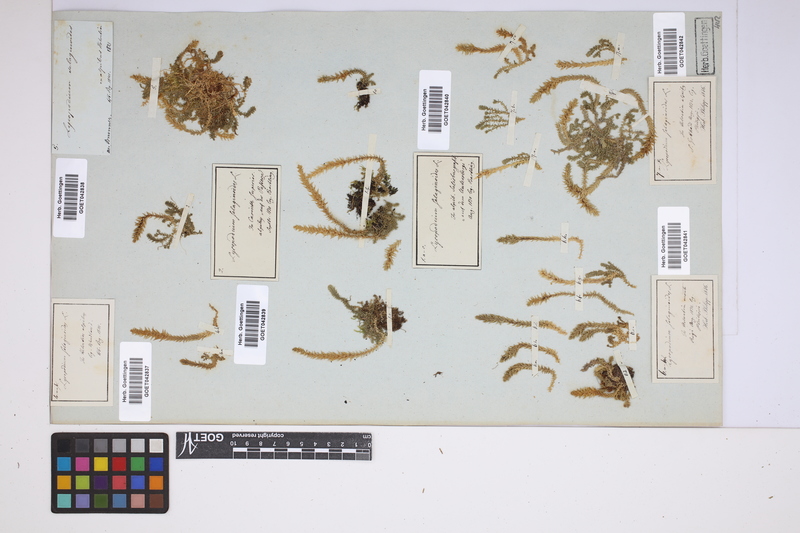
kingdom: Plantae
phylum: Tracheophyta
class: Lycopodiopsida
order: Selaginellales
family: Selaginellaceae
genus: Selaginella
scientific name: Selaginella selaginoides
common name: Prickly mountain-moss
